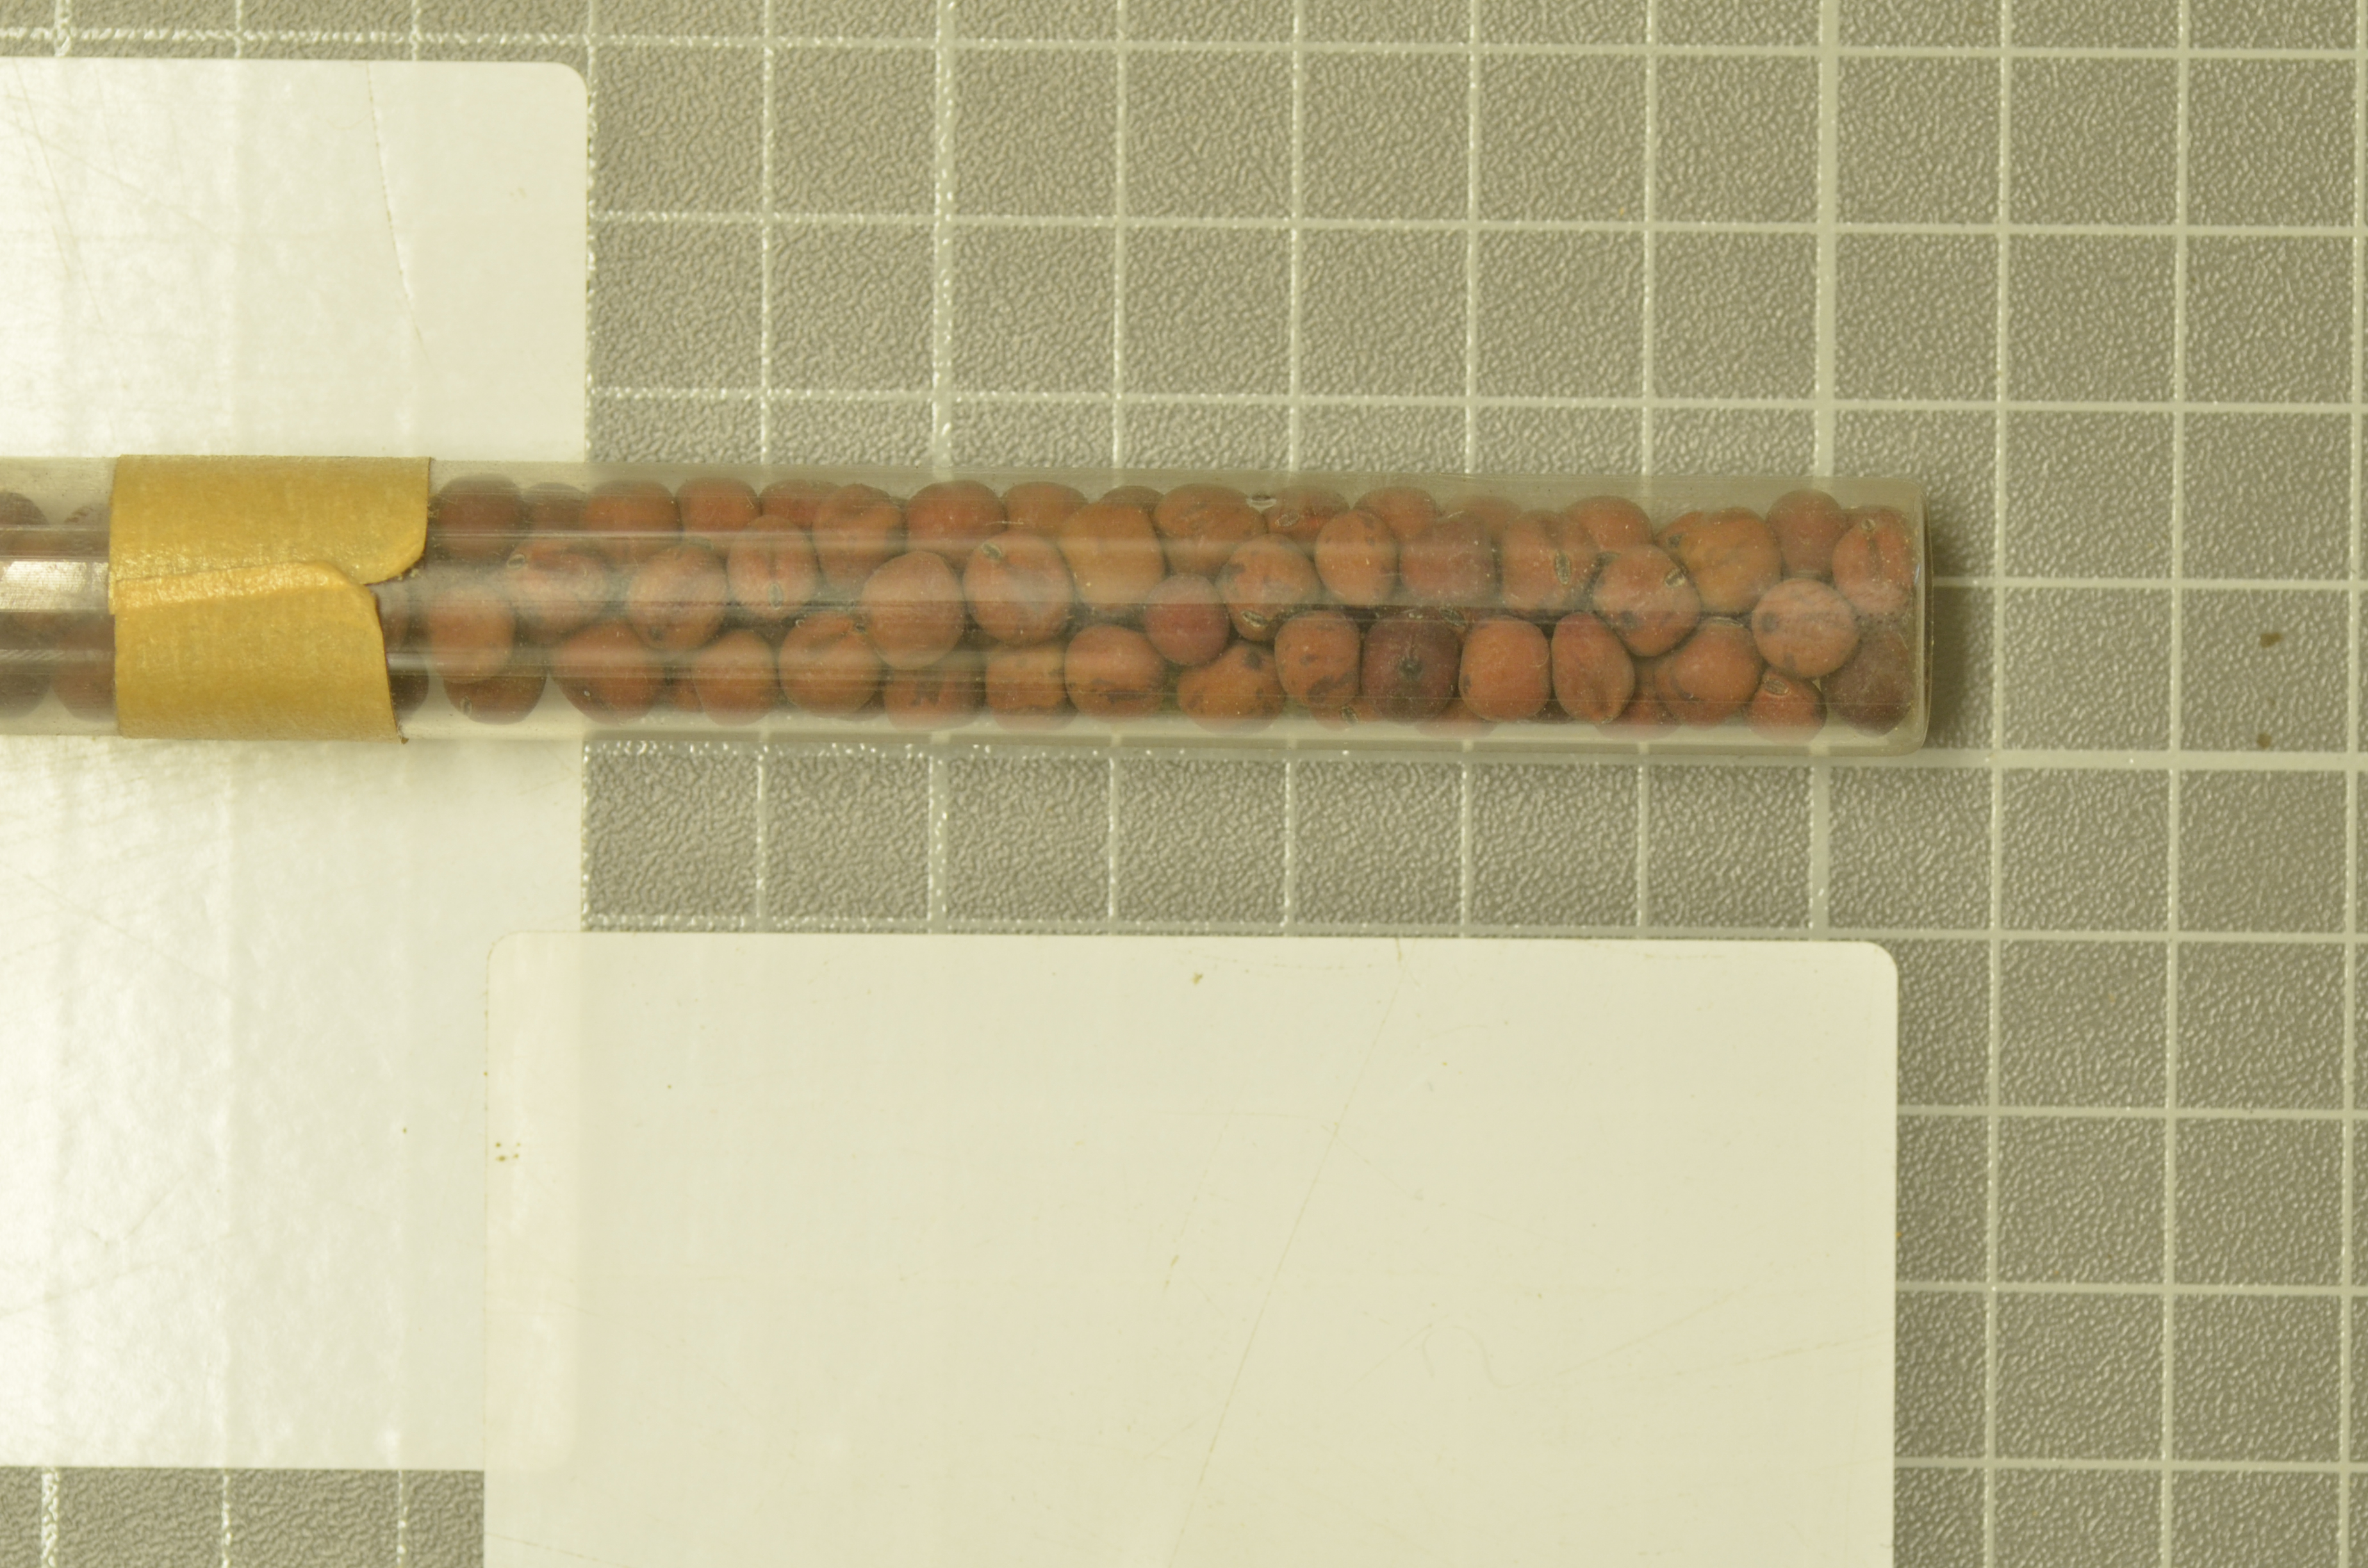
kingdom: Plantae
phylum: Tracheophyta
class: Magnoliopsida
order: Fabales
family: Fabaceae
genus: Lathyrus
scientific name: Lathyrus oleraceus
